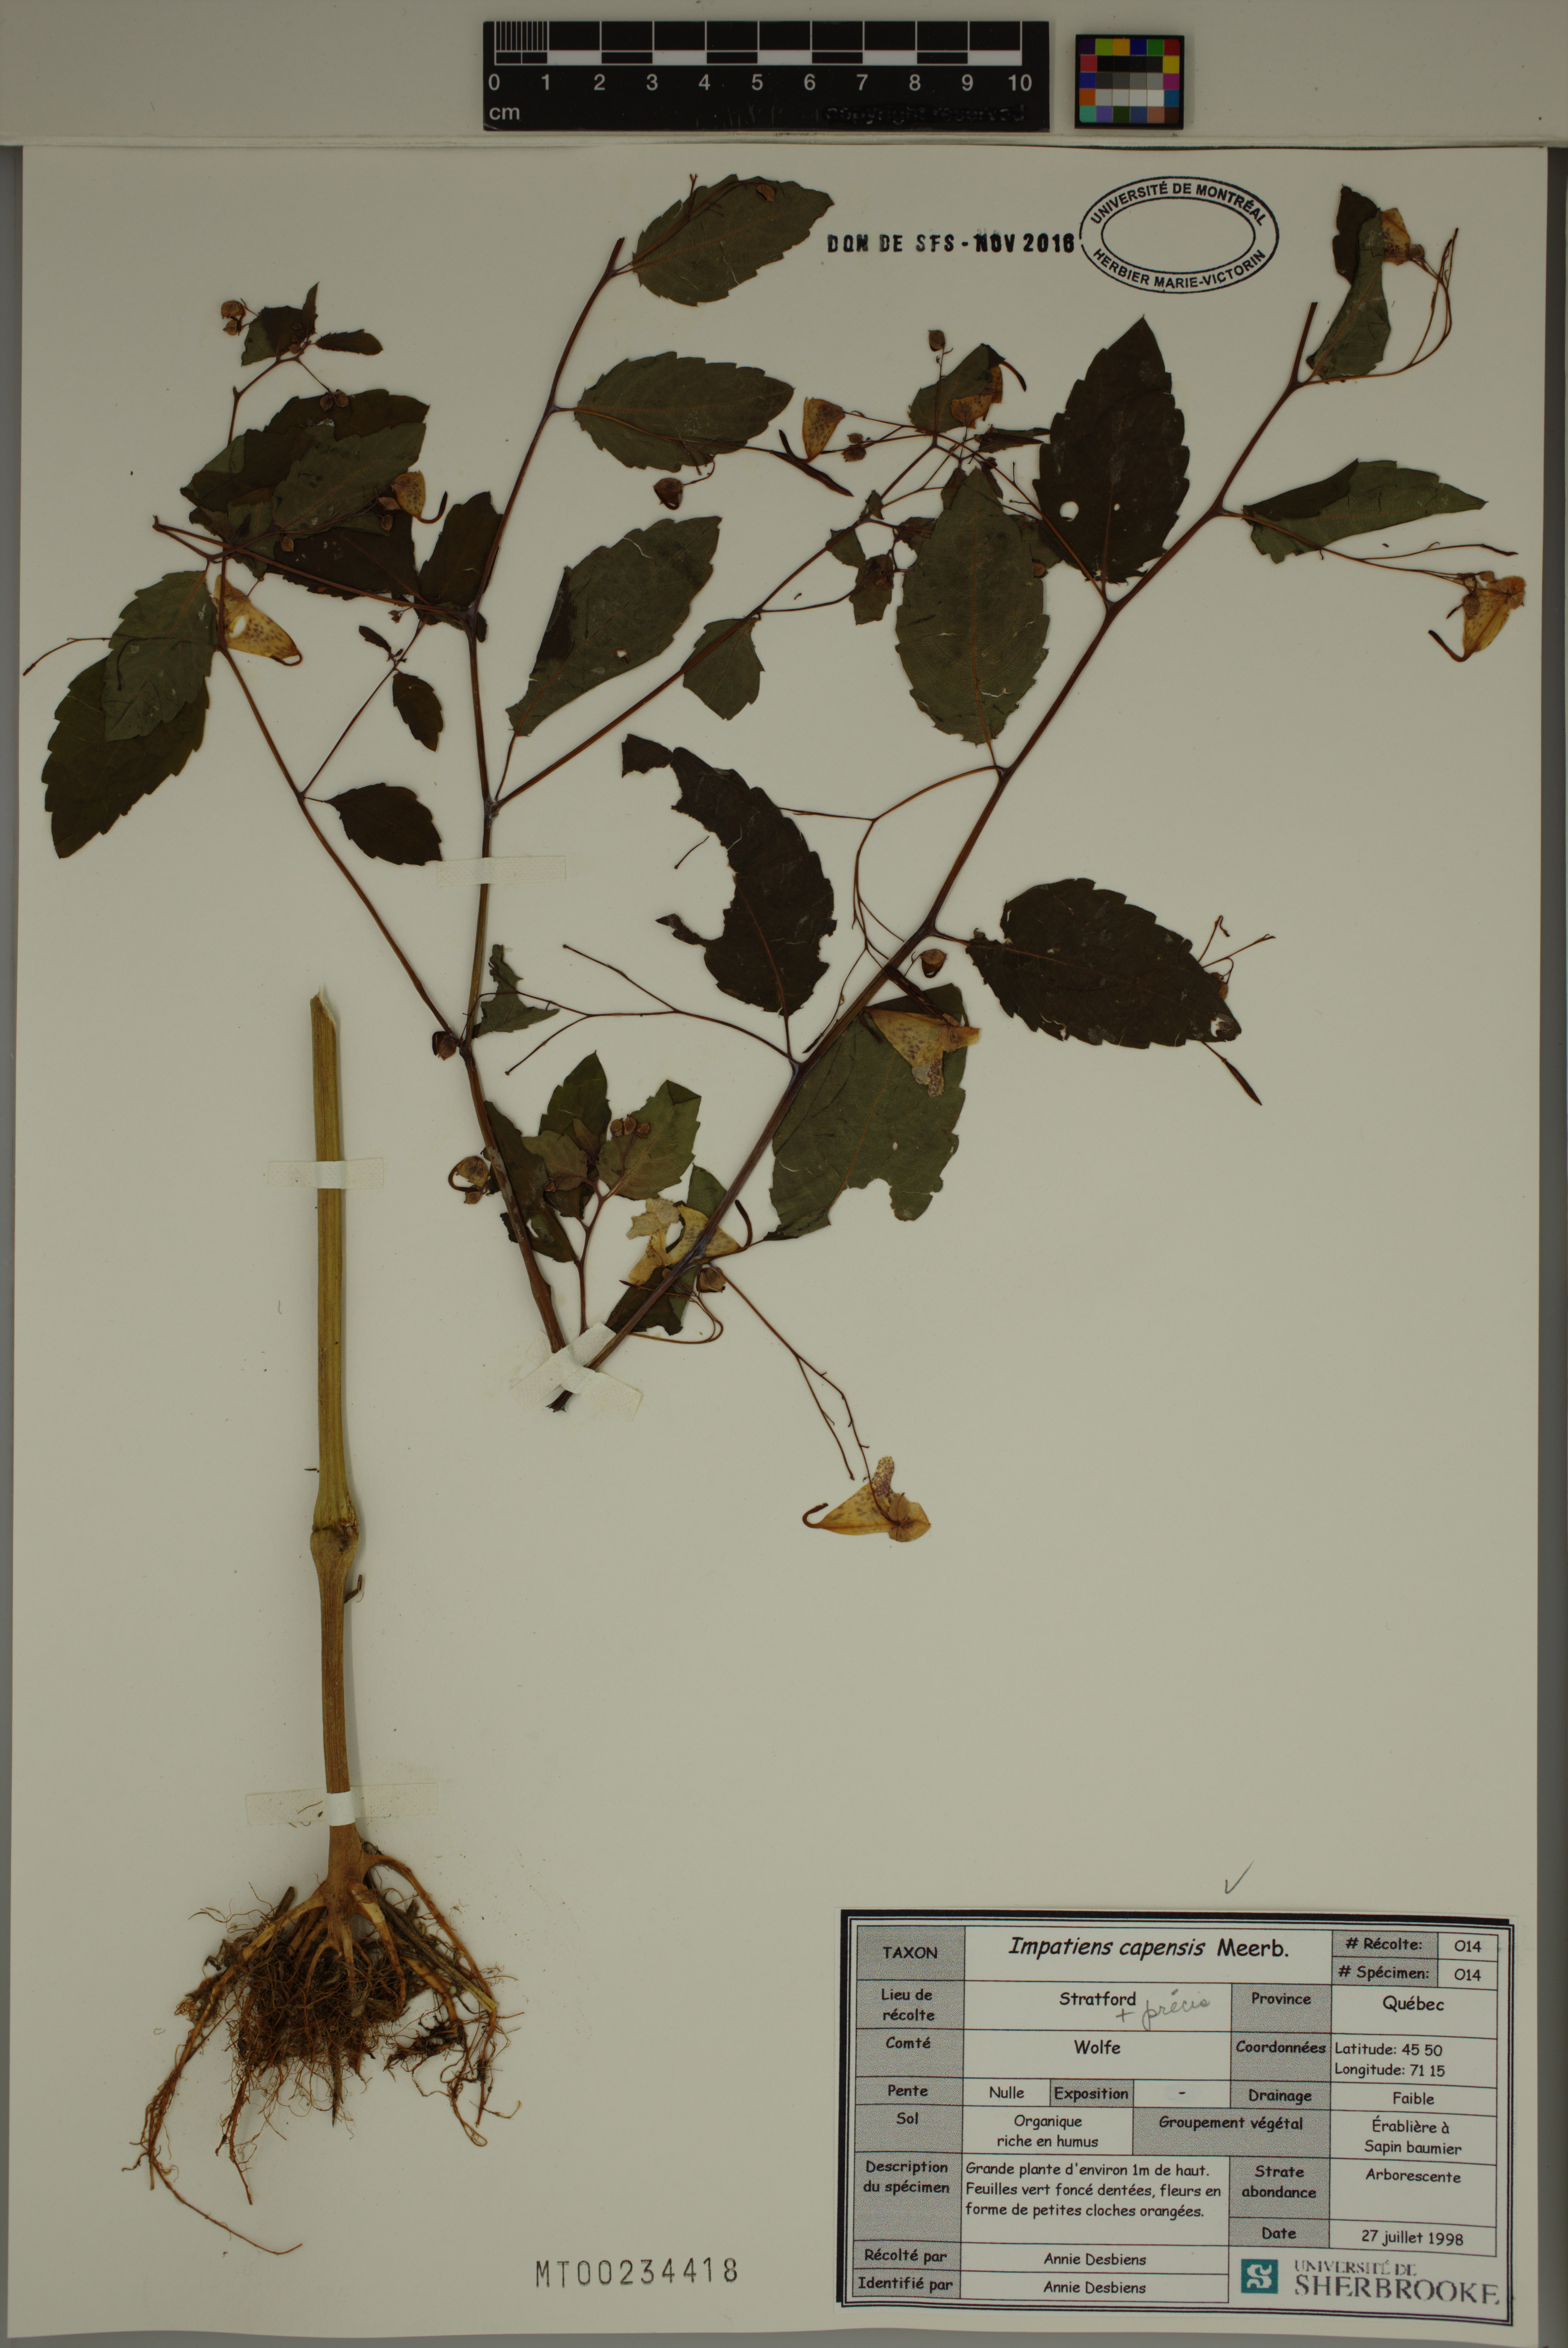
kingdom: Plantae
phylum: Tracheophyta
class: Magnoliopsida
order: Ericales
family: Balsaminaceae
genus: Impatiens
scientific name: Impatiens capensis
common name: Orange balsam
